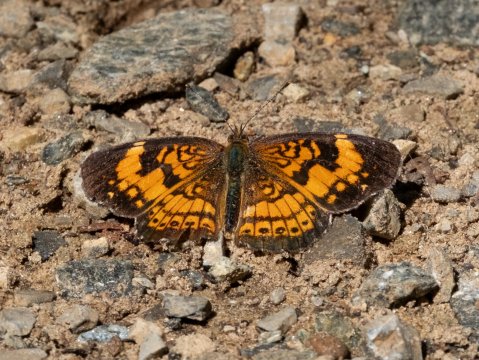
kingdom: Animalia
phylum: Arthropoda
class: Insecta
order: Lepidoptera
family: Nymphalidae
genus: Chlosyne
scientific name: Chlosyne nycteis
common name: Silvery Checkerspot
